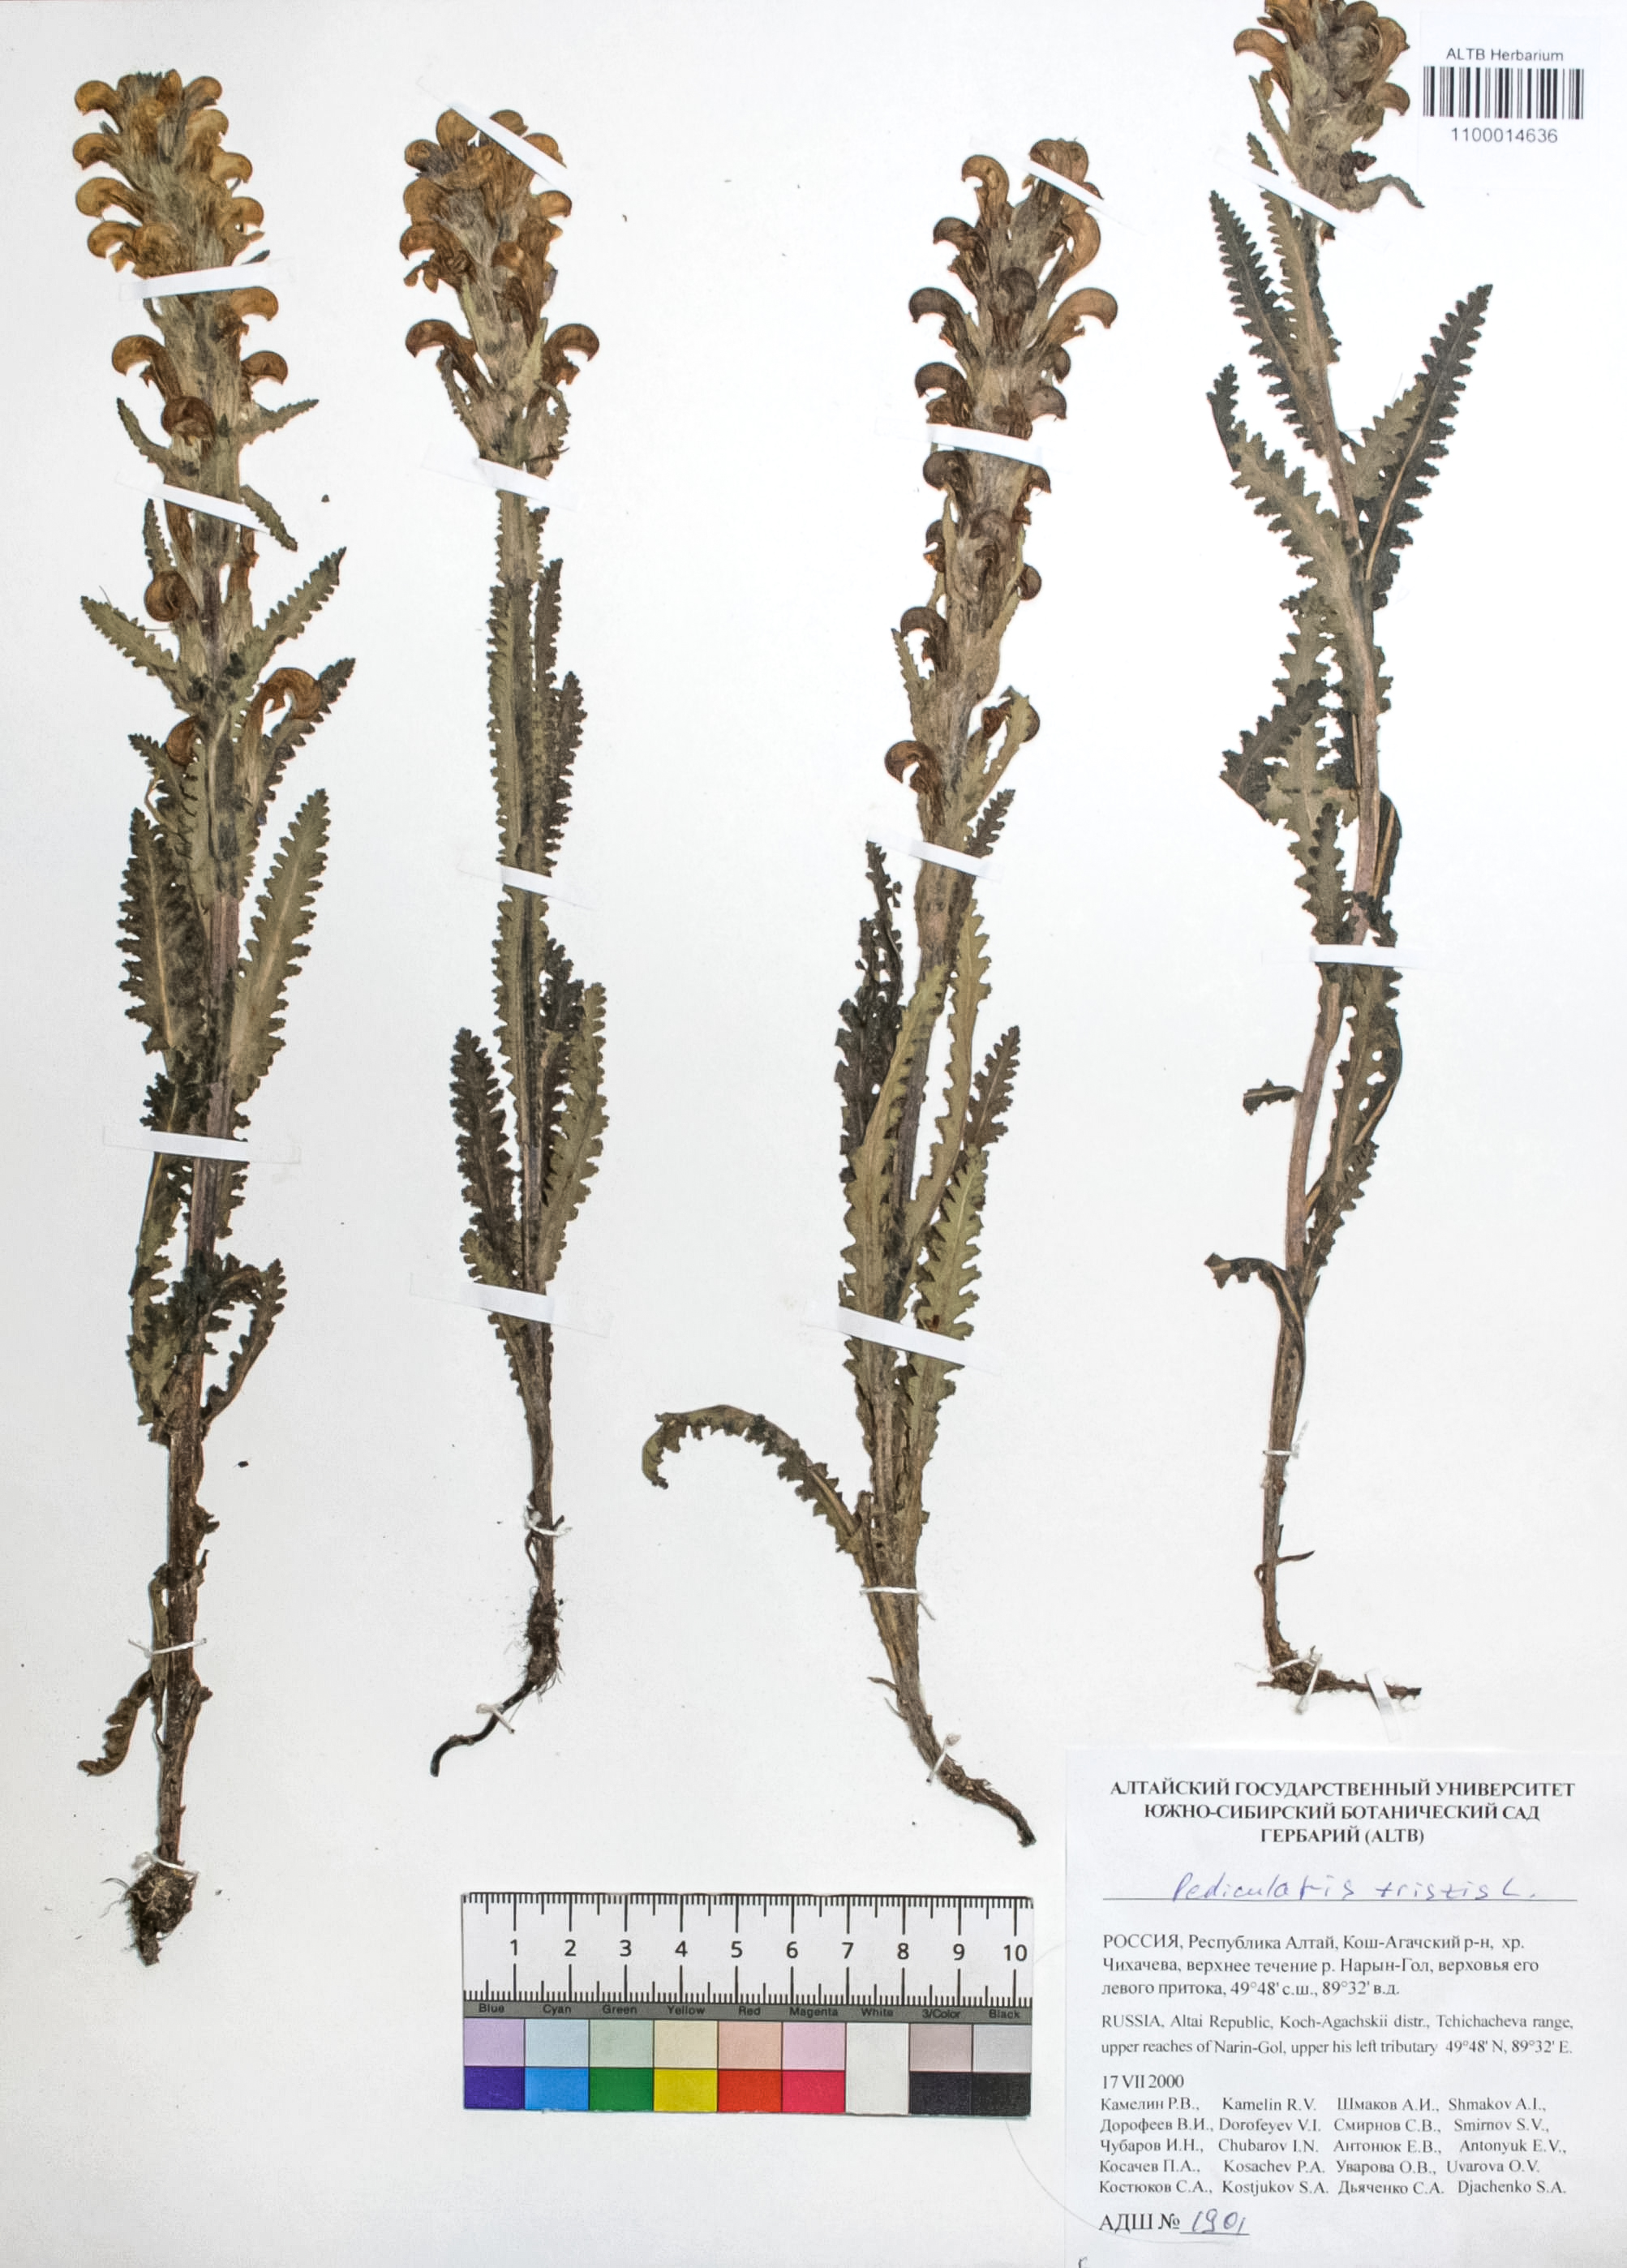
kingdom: Plantae
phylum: Tracheophyta
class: Magnoliopsida
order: Lamiales
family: Orobanchaceae
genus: Pedicularis
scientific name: Pedicularis tristis
